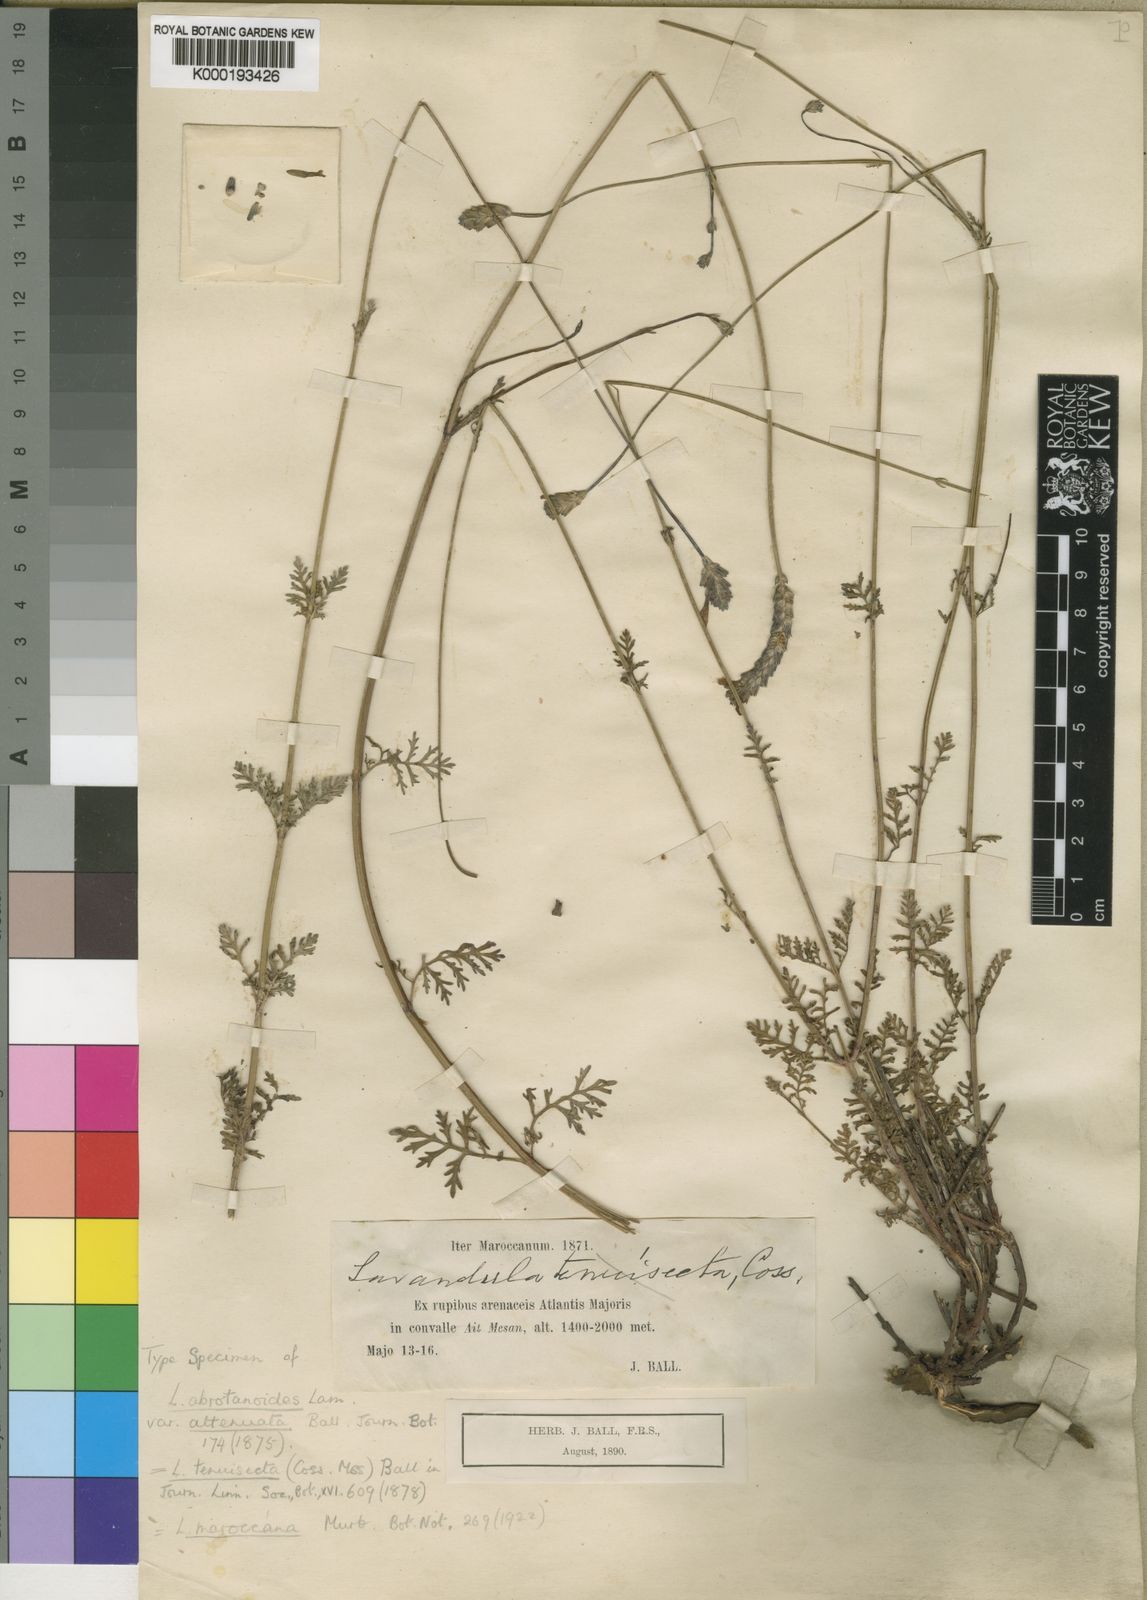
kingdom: Plantae
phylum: Tracheophyta
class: Magnoliopsida
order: Lamiales
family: Lamiaceae
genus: Lavandula
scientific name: Lavandula
